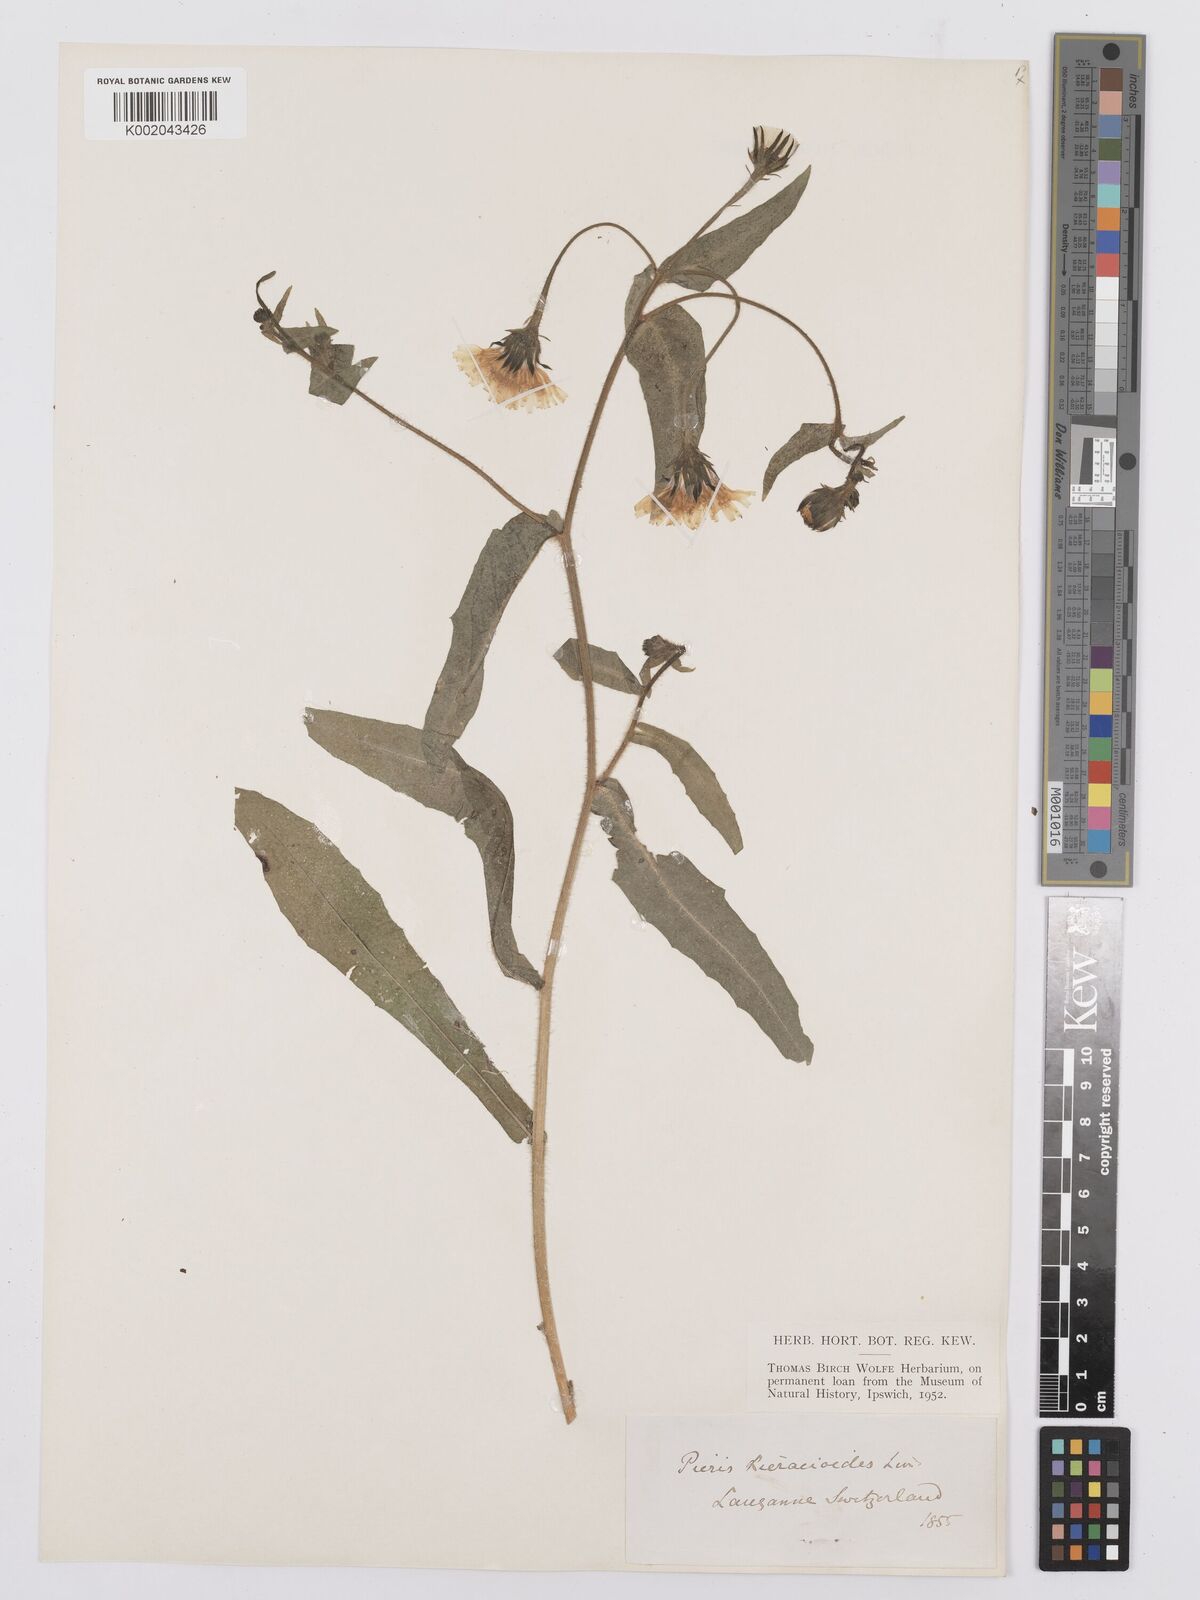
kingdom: Plantae
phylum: Tracheophyta
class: Magnoliopsida
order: Asterales
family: Asteraceae
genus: Picris
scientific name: Picris hieracioides
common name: Hawkweed oxtongue
